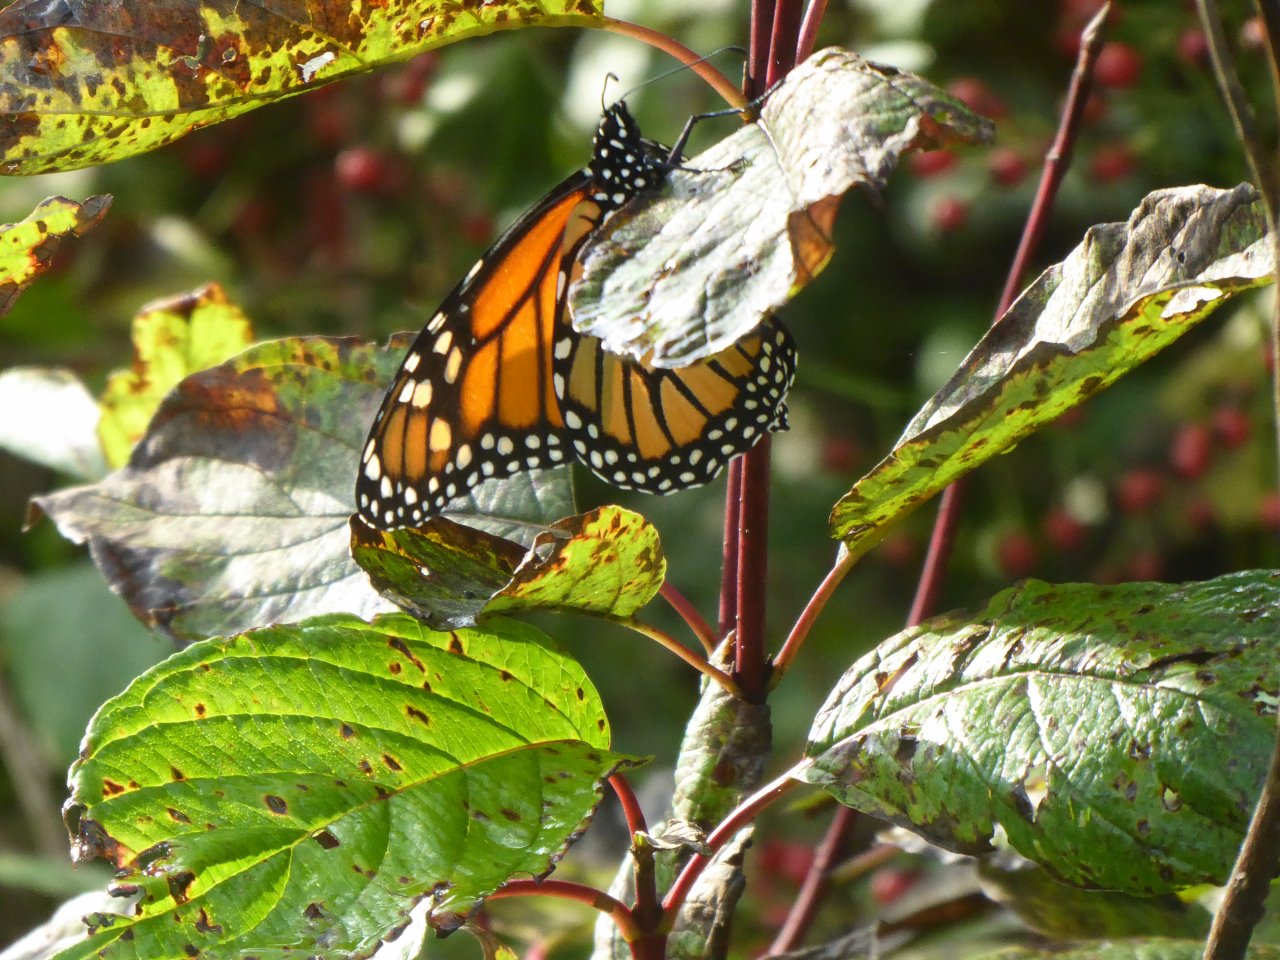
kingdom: Animalia
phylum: Arthropoda
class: Insecta
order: Lepidoptera
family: Nymphalidae
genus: Danaus
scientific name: Danaus plexippus
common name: Monarch
